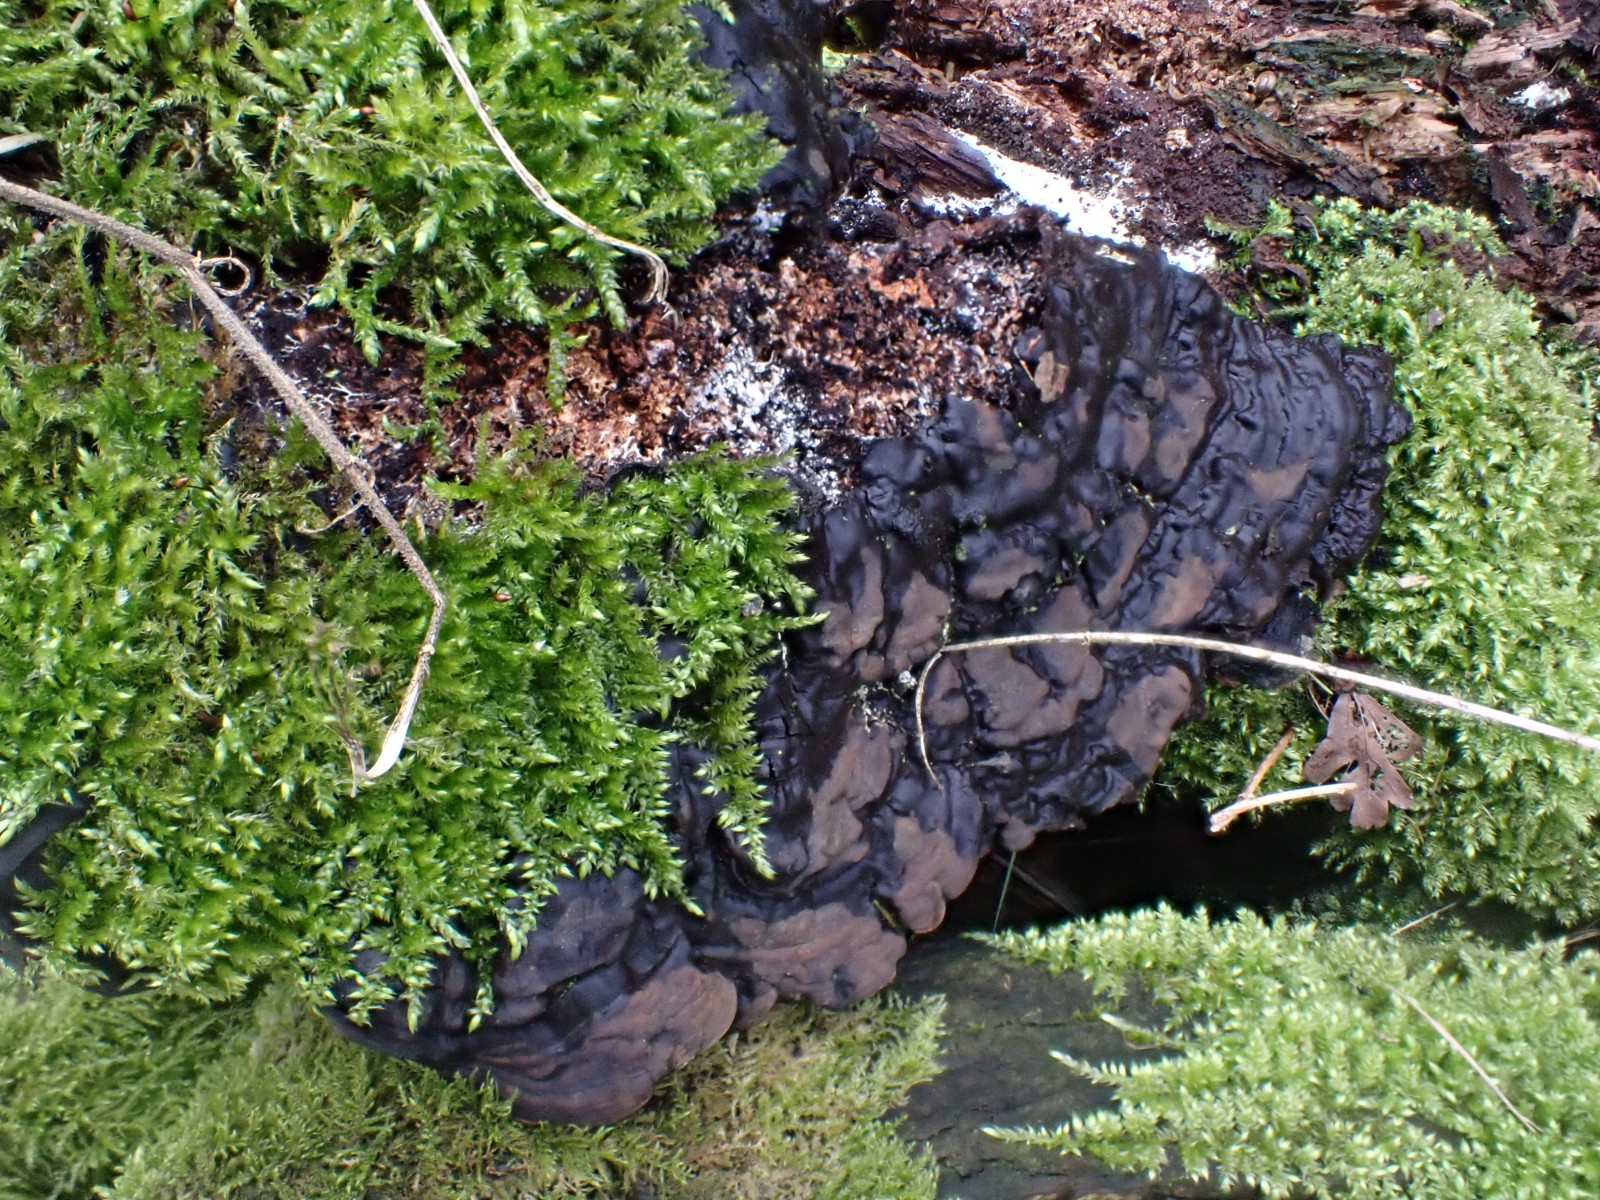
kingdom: Fungi
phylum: Basidiomycota
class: Agaricomycetes
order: Polyporales
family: Polyporaceae
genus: Ganoderma
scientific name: Ganoderma applanatum
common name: flad lakporesvamp
